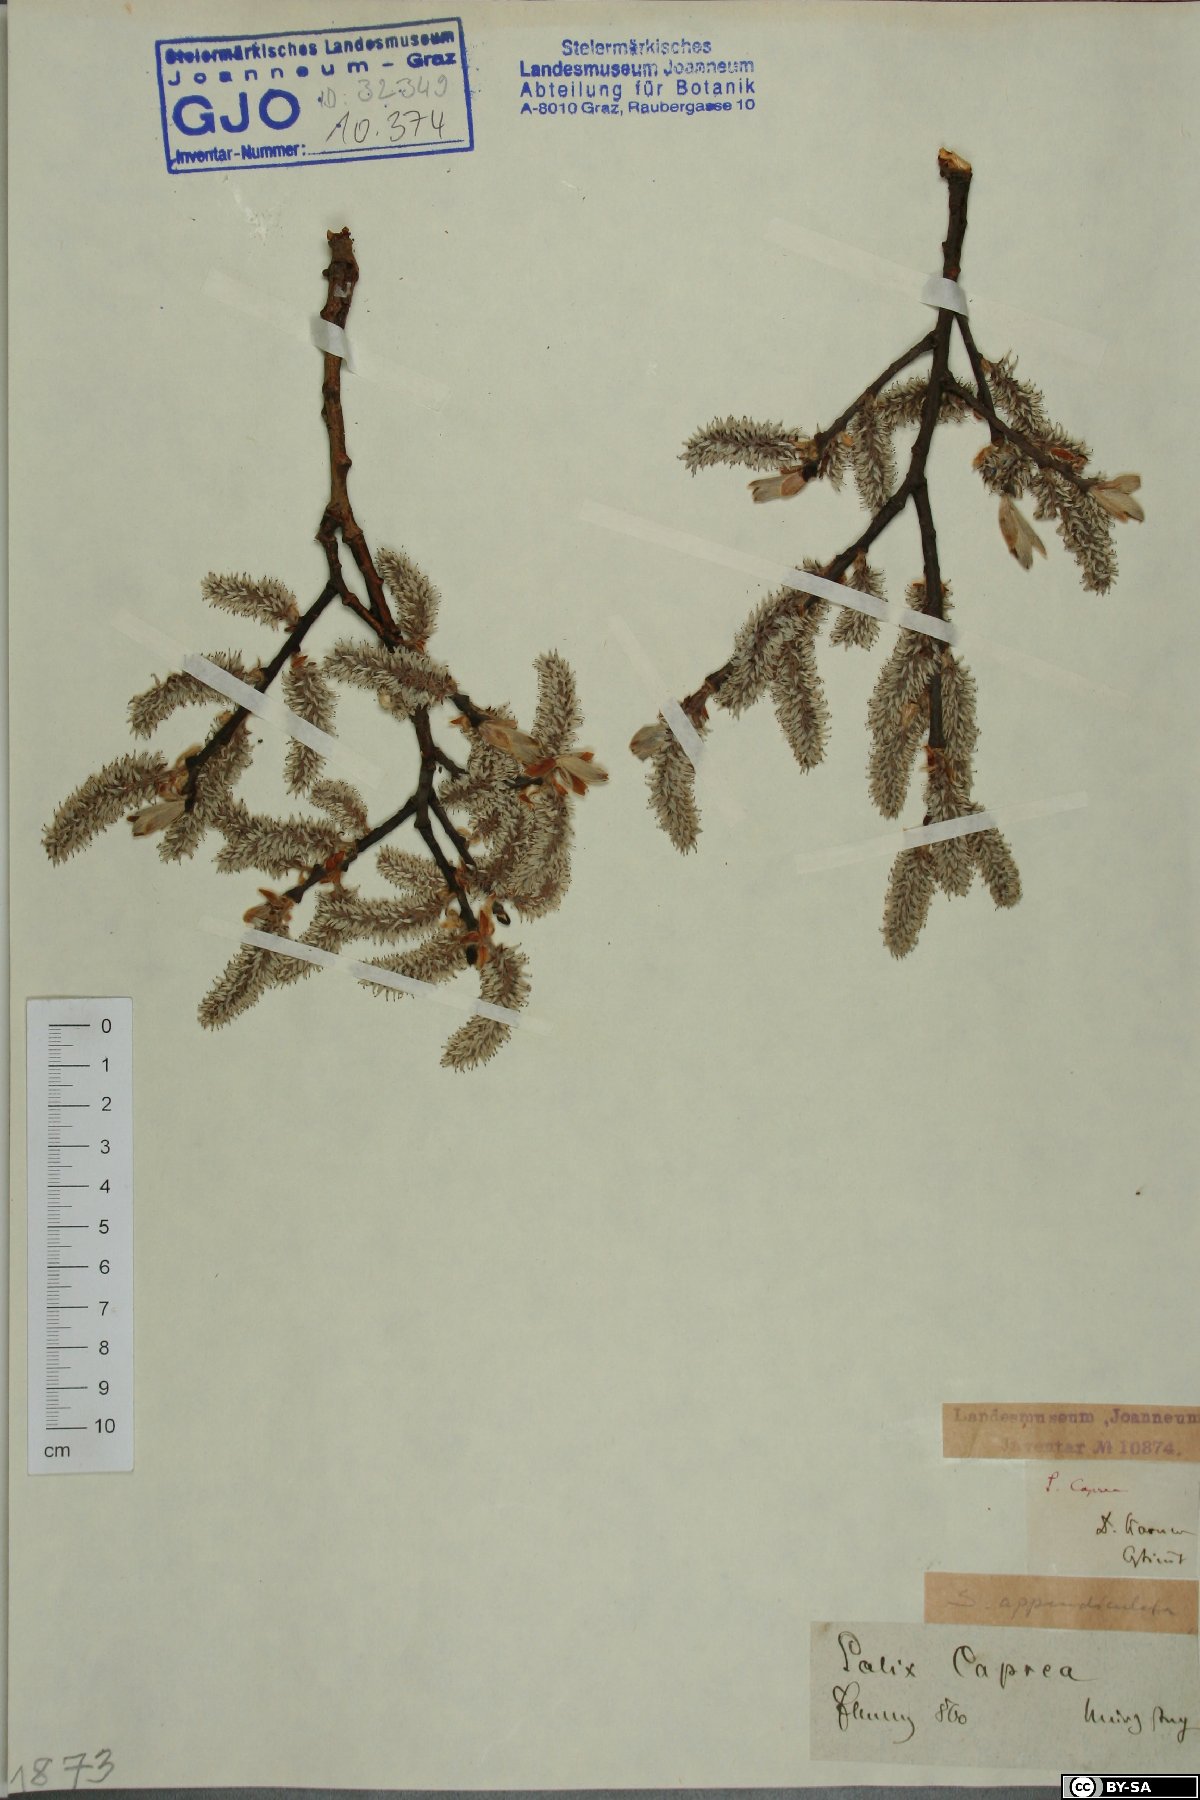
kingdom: Plantae
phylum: Tracheophyta
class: Magnoliopsida
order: Malpighiales
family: Salicaceae
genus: Salix
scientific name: Salix caprea
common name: Goat willow
